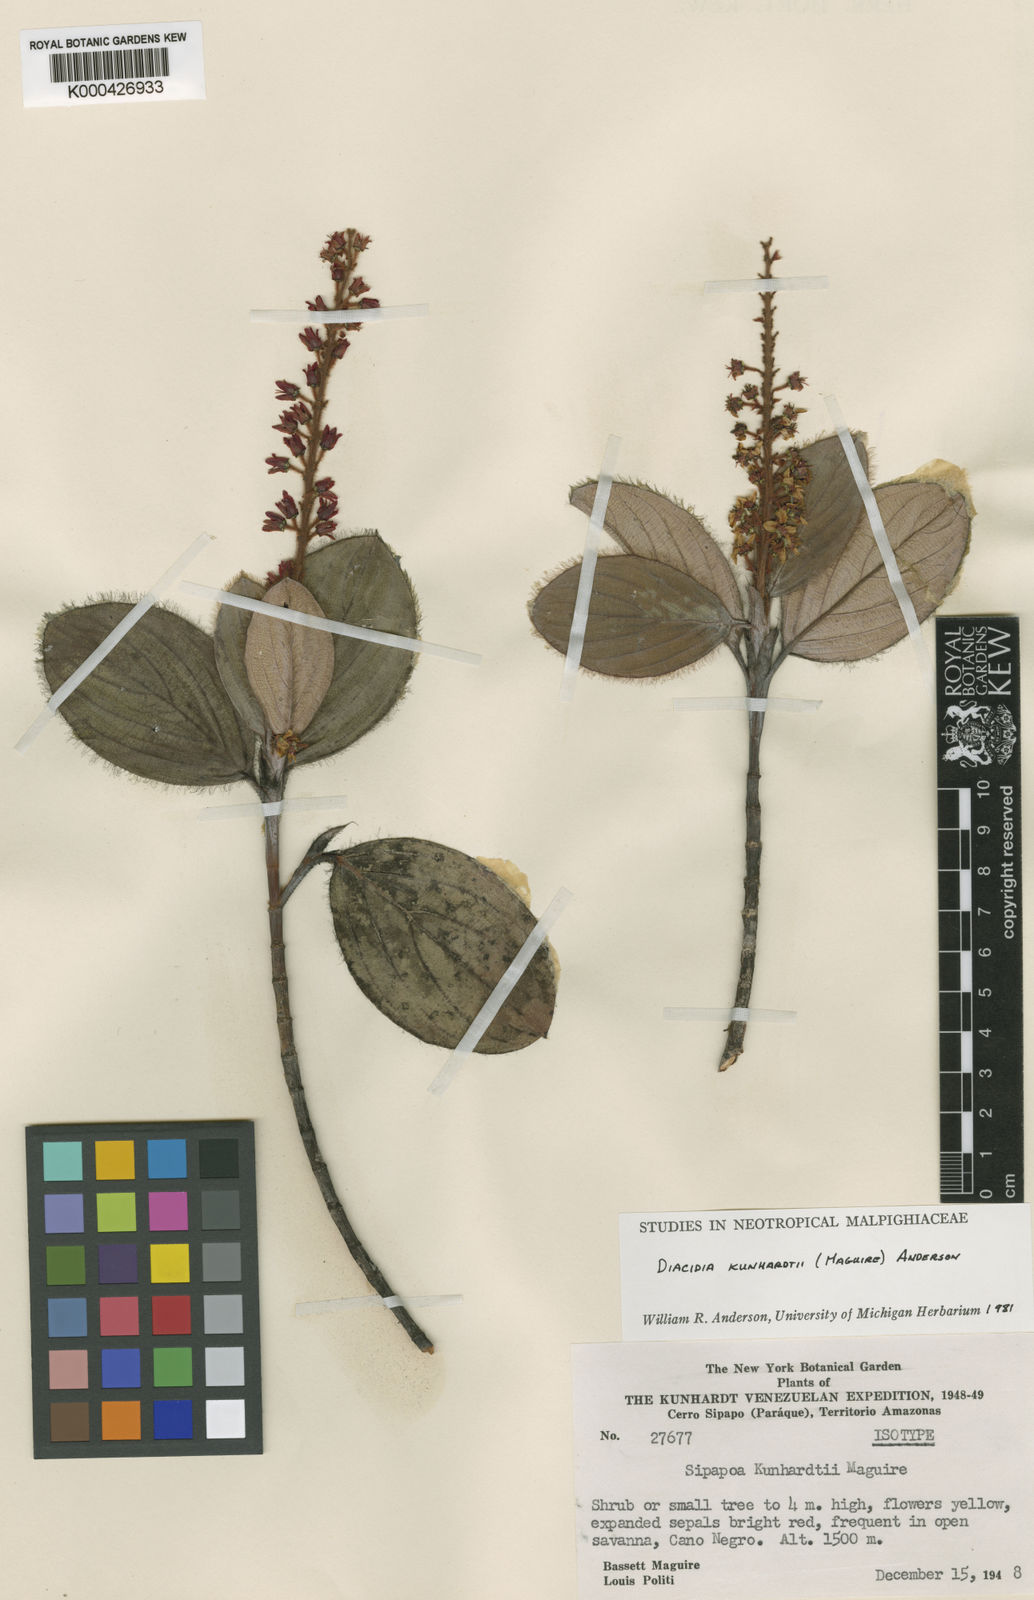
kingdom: Plantae
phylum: Tracheophyta
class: Magnoliopsida
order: Malpighiales
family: Malpighiaceae
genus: Diacidia
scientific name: Diacidia kunhardtii
